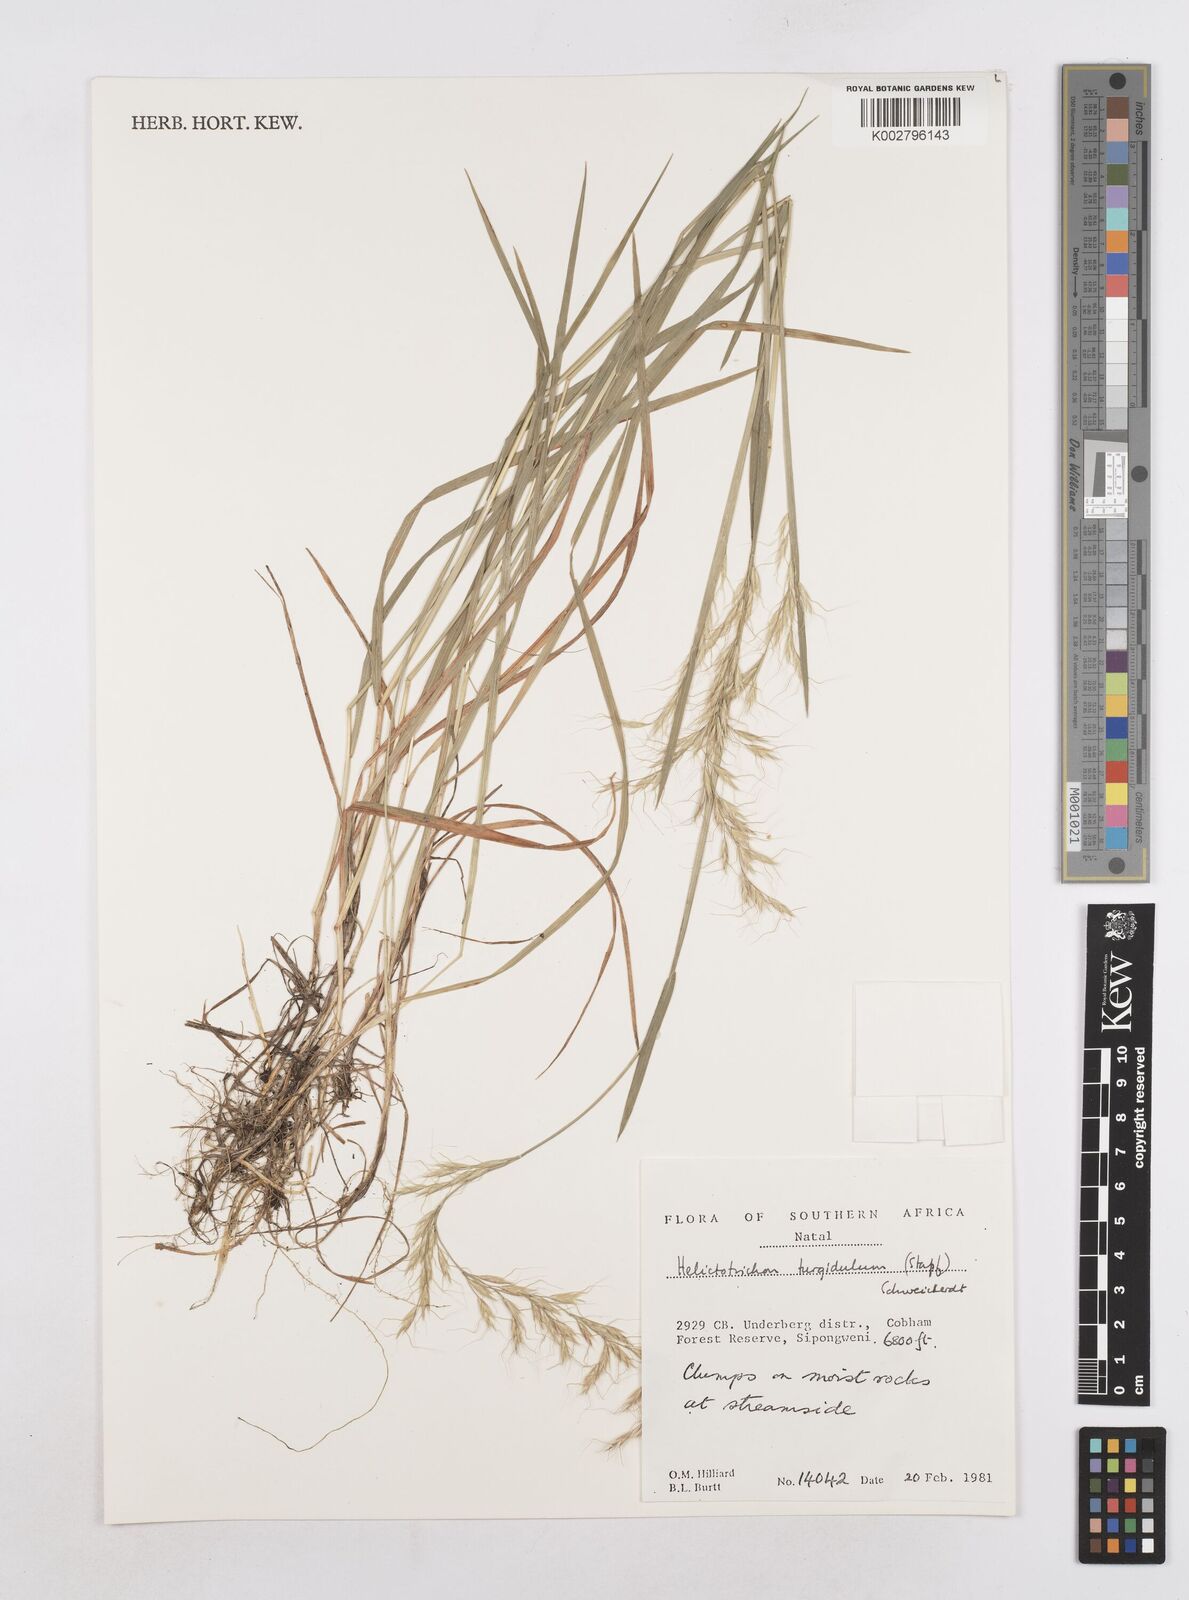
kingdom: Plantae
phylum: Tracheophyta
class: Liliopsida
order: Poales
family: Poaceae
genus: Trisetopsis
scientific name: Trisetopsis imberbis
